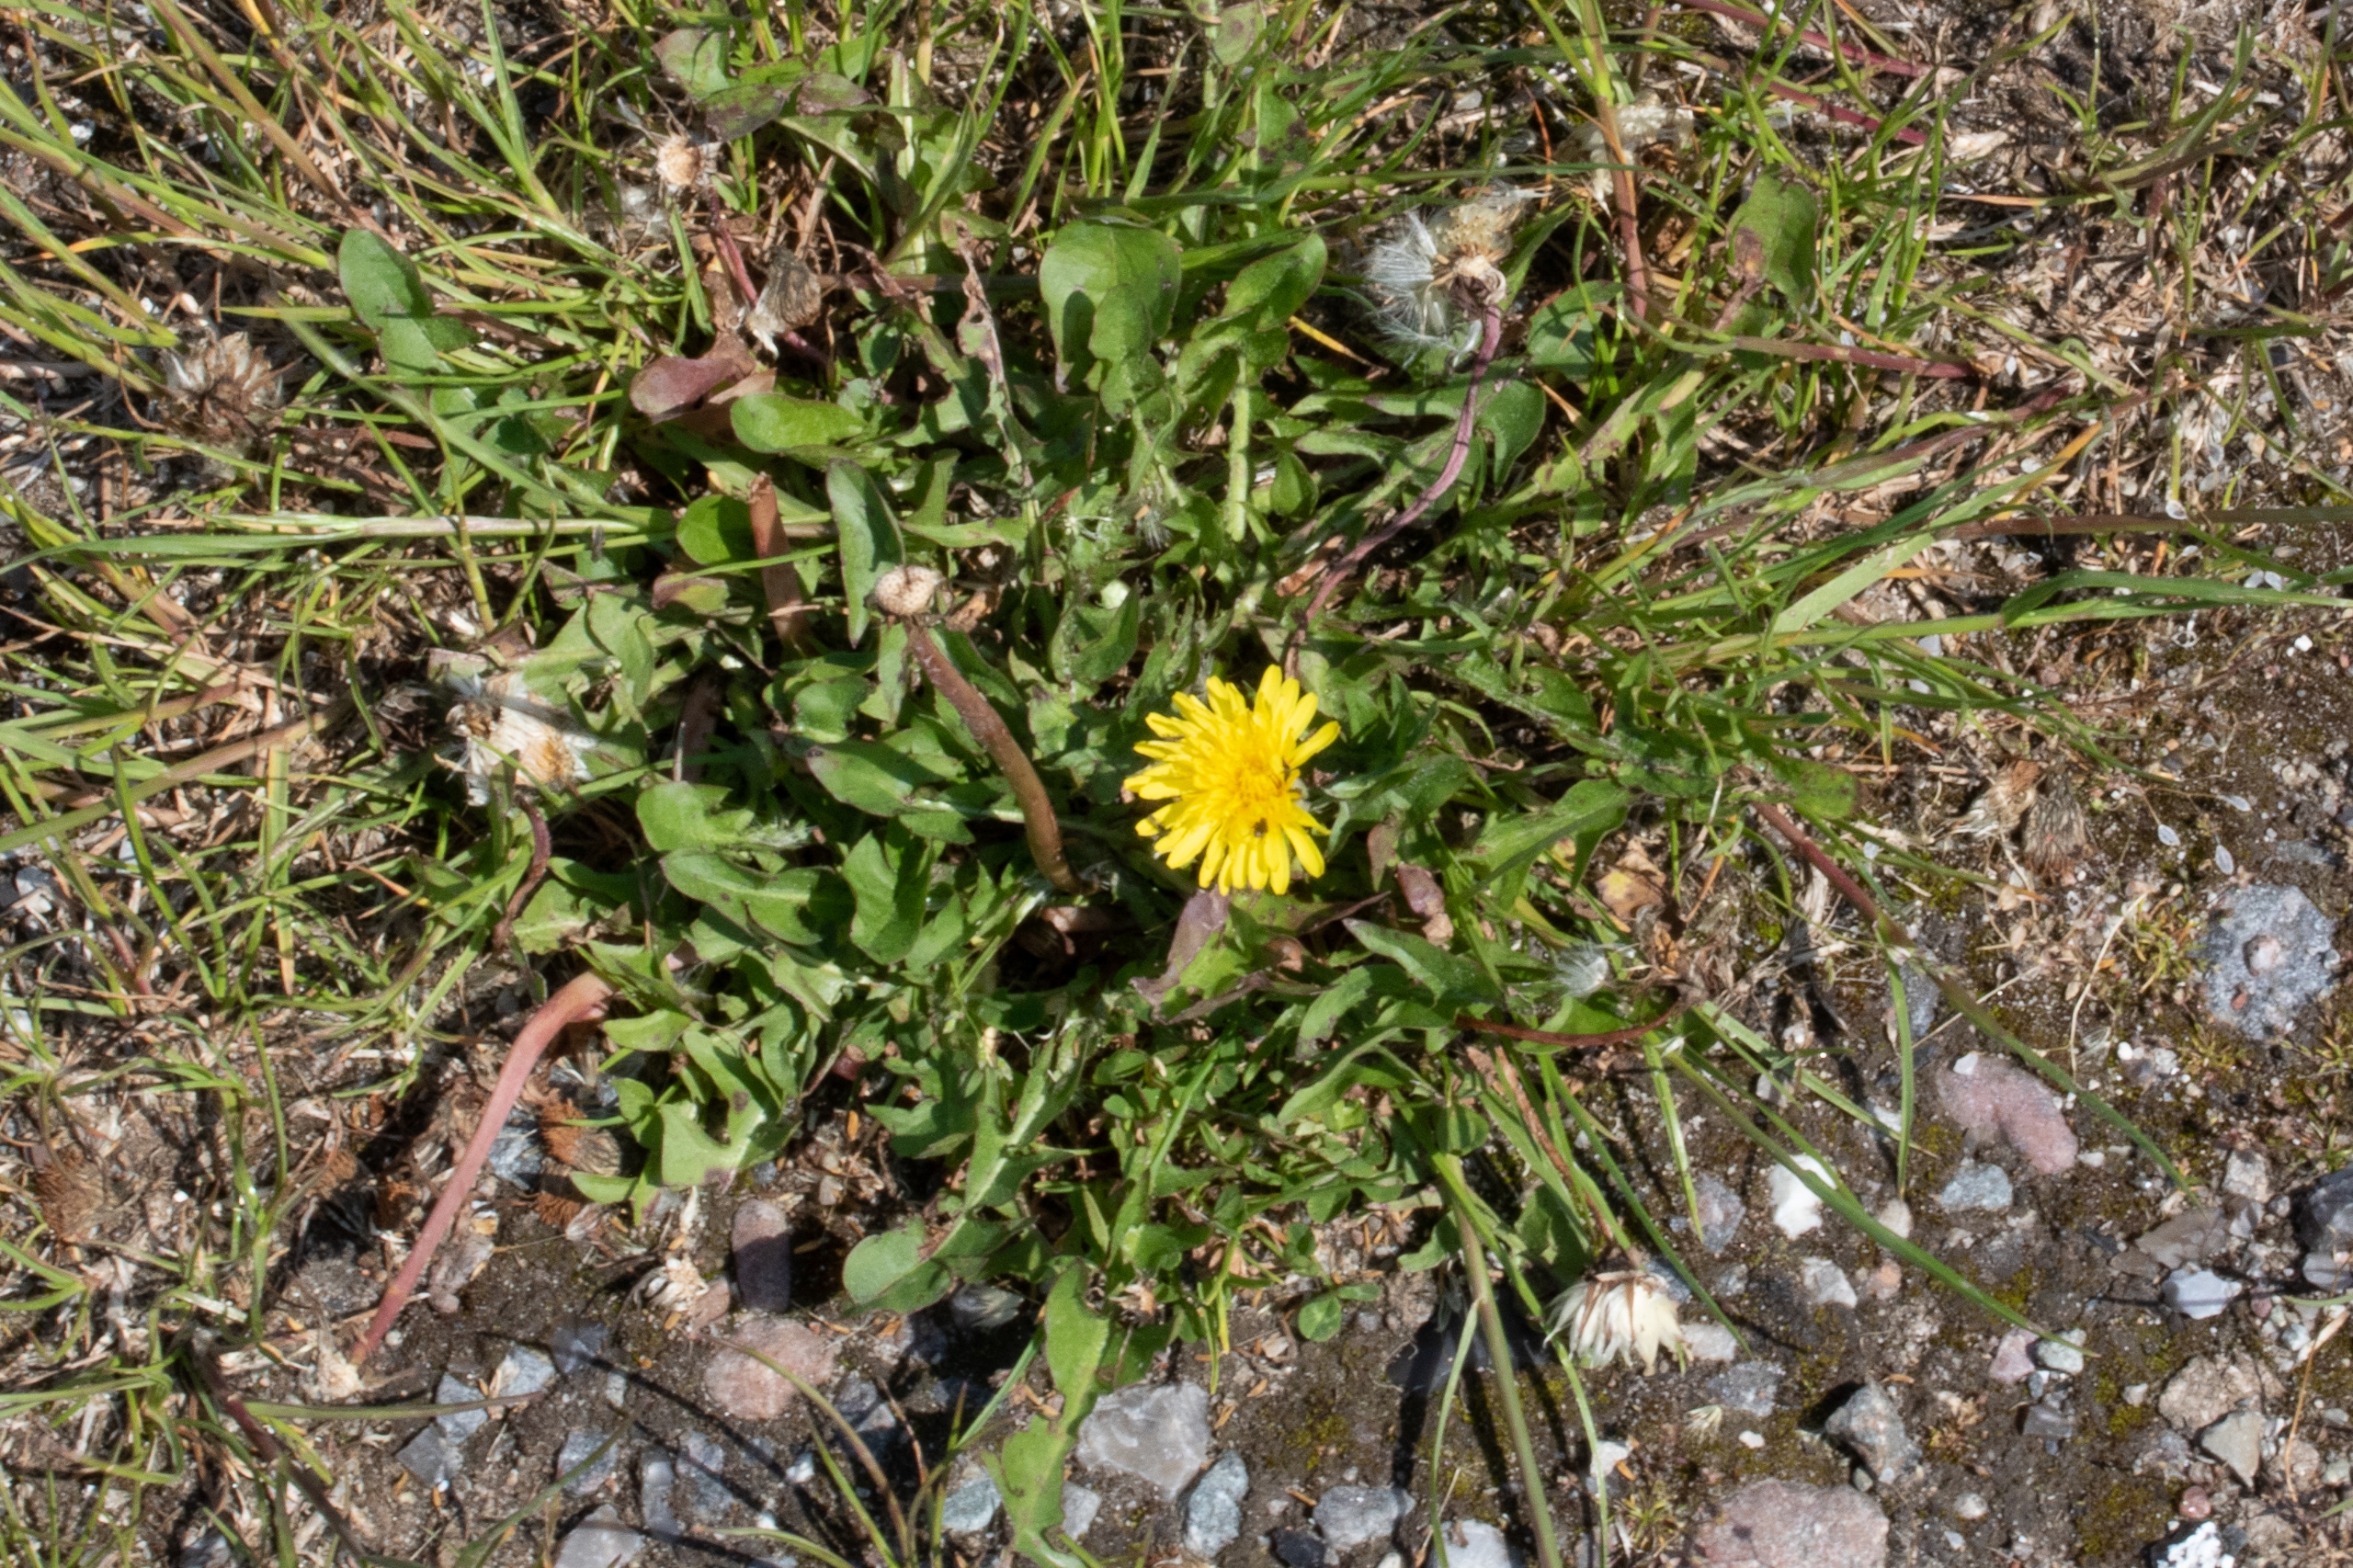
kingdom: Plantae
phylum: Tracheophyta
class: Magnoliopsida
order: Asterales
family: Asteraceae
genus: Taraxacum
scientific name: Taraxacum
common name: Mælkebøtteslægten
